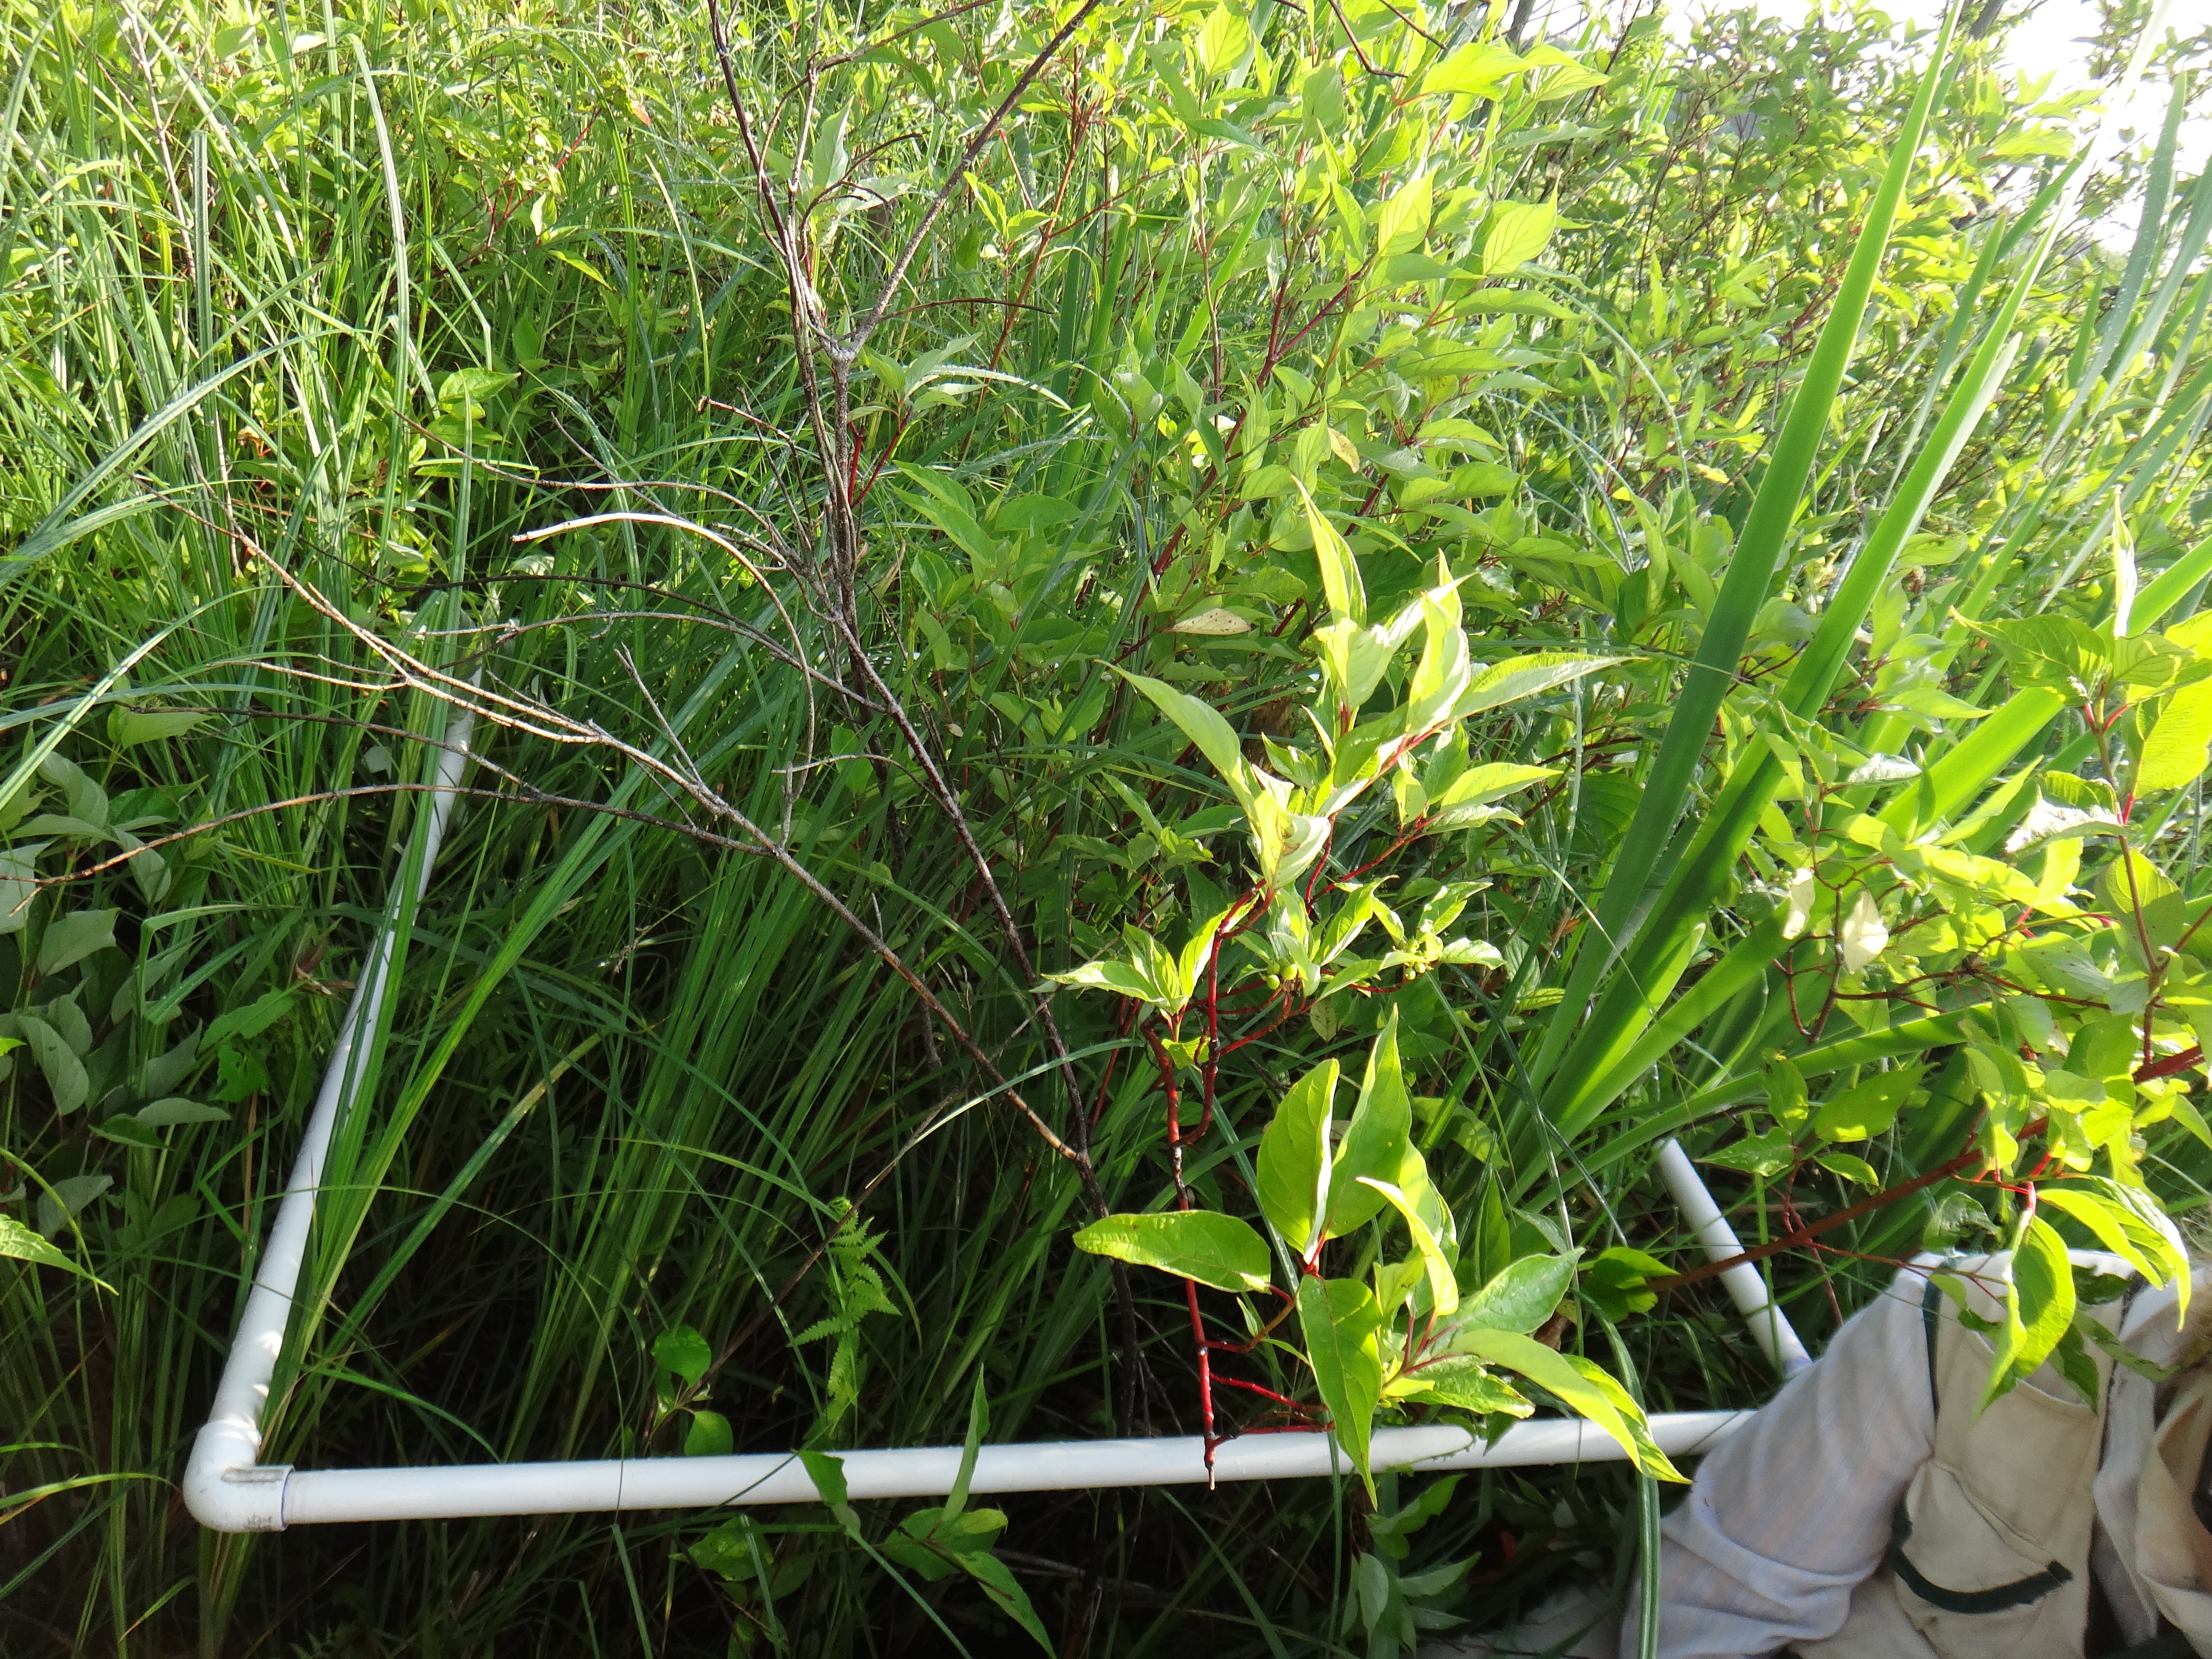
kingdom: Plantae
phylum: Tracheophyta
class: Liliopsida
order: Poales
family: Typhaceae
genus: Typha
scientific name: Typha latifolia
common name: Broadleaf cattail
